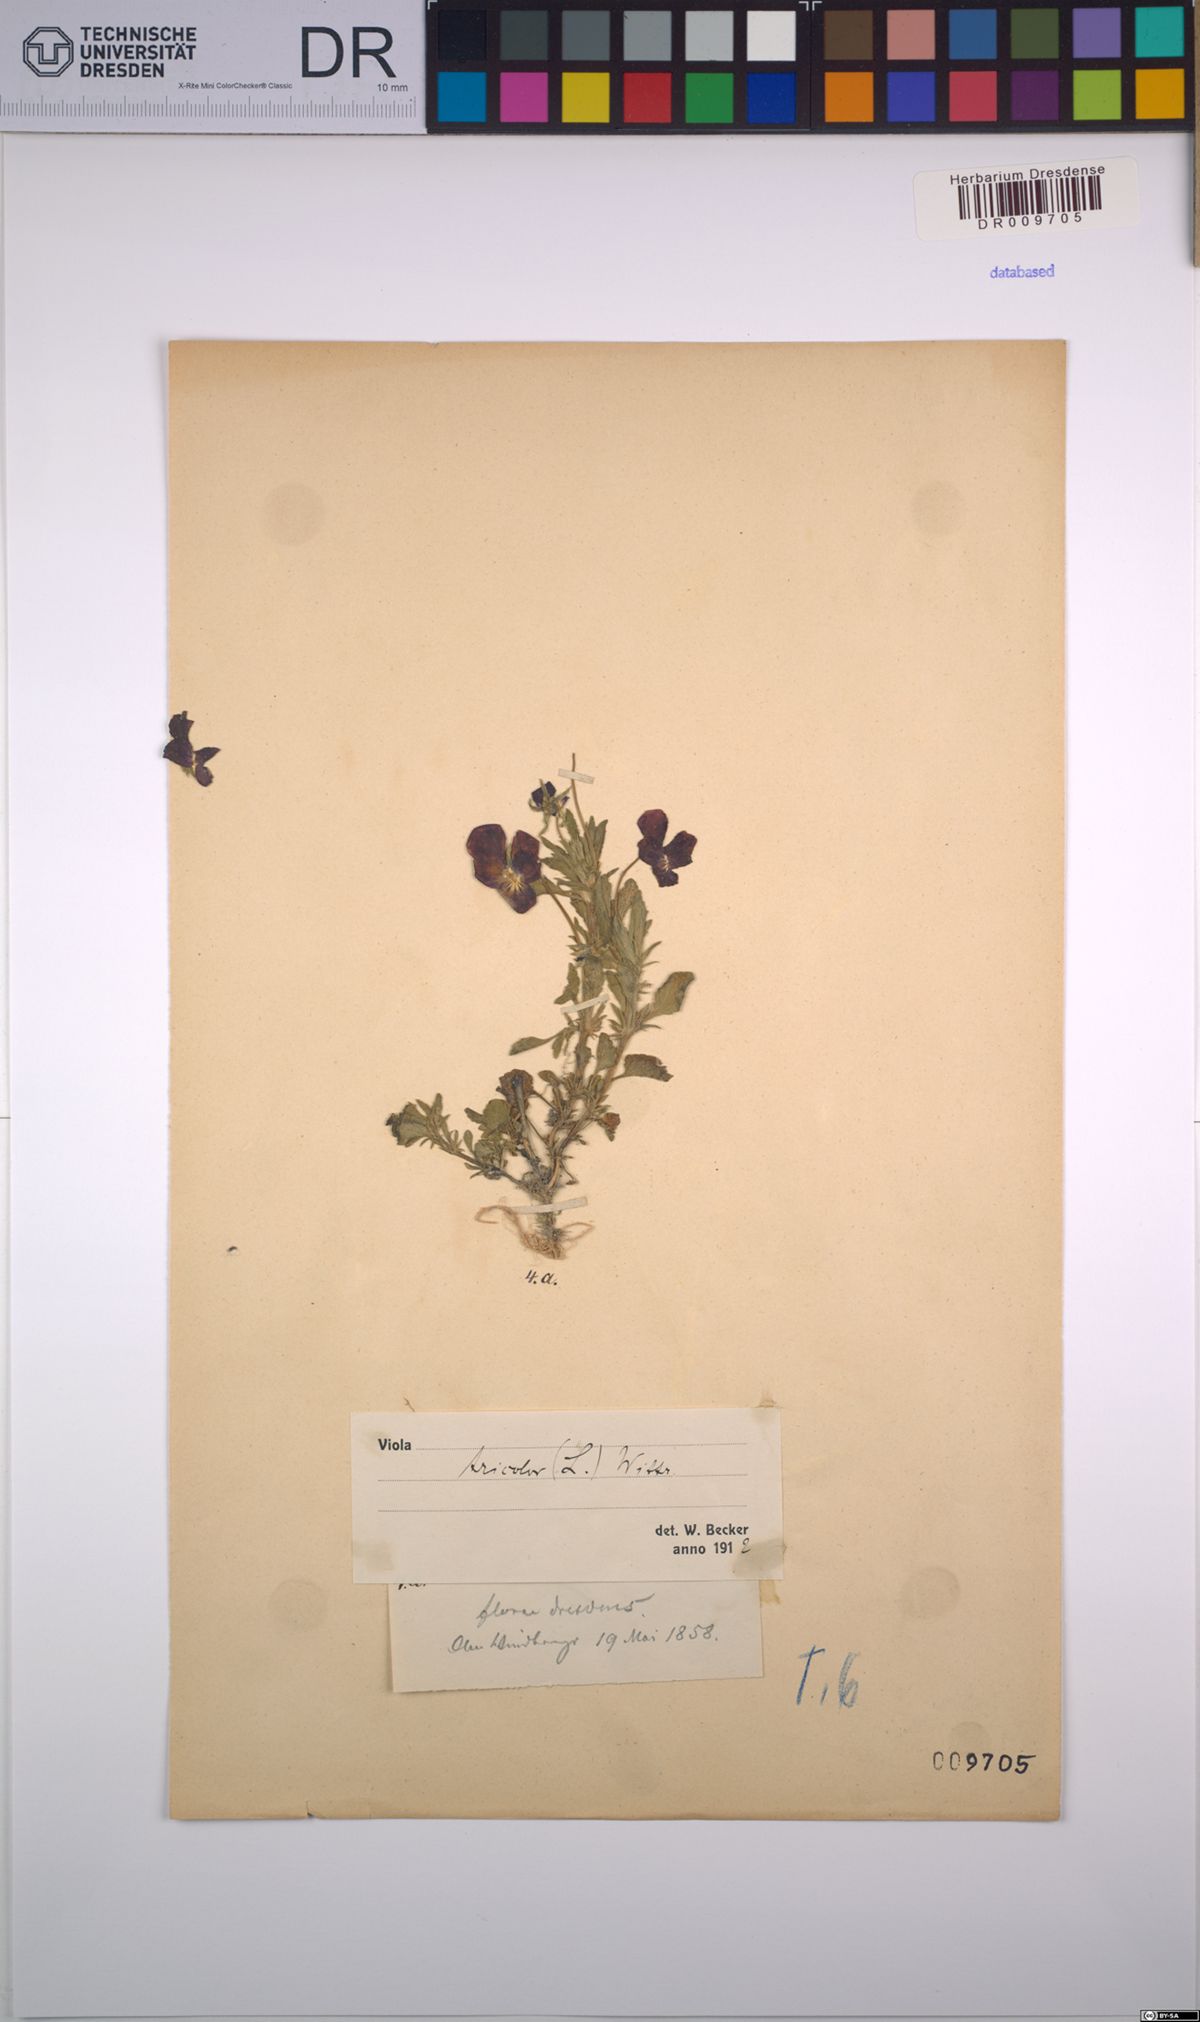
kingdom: Plantae
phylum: Tracheophyta
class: Magnoliopsida
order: Malpighiales
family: Violaceae
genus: Viola
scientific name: Viola tricolor
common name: Pansy
